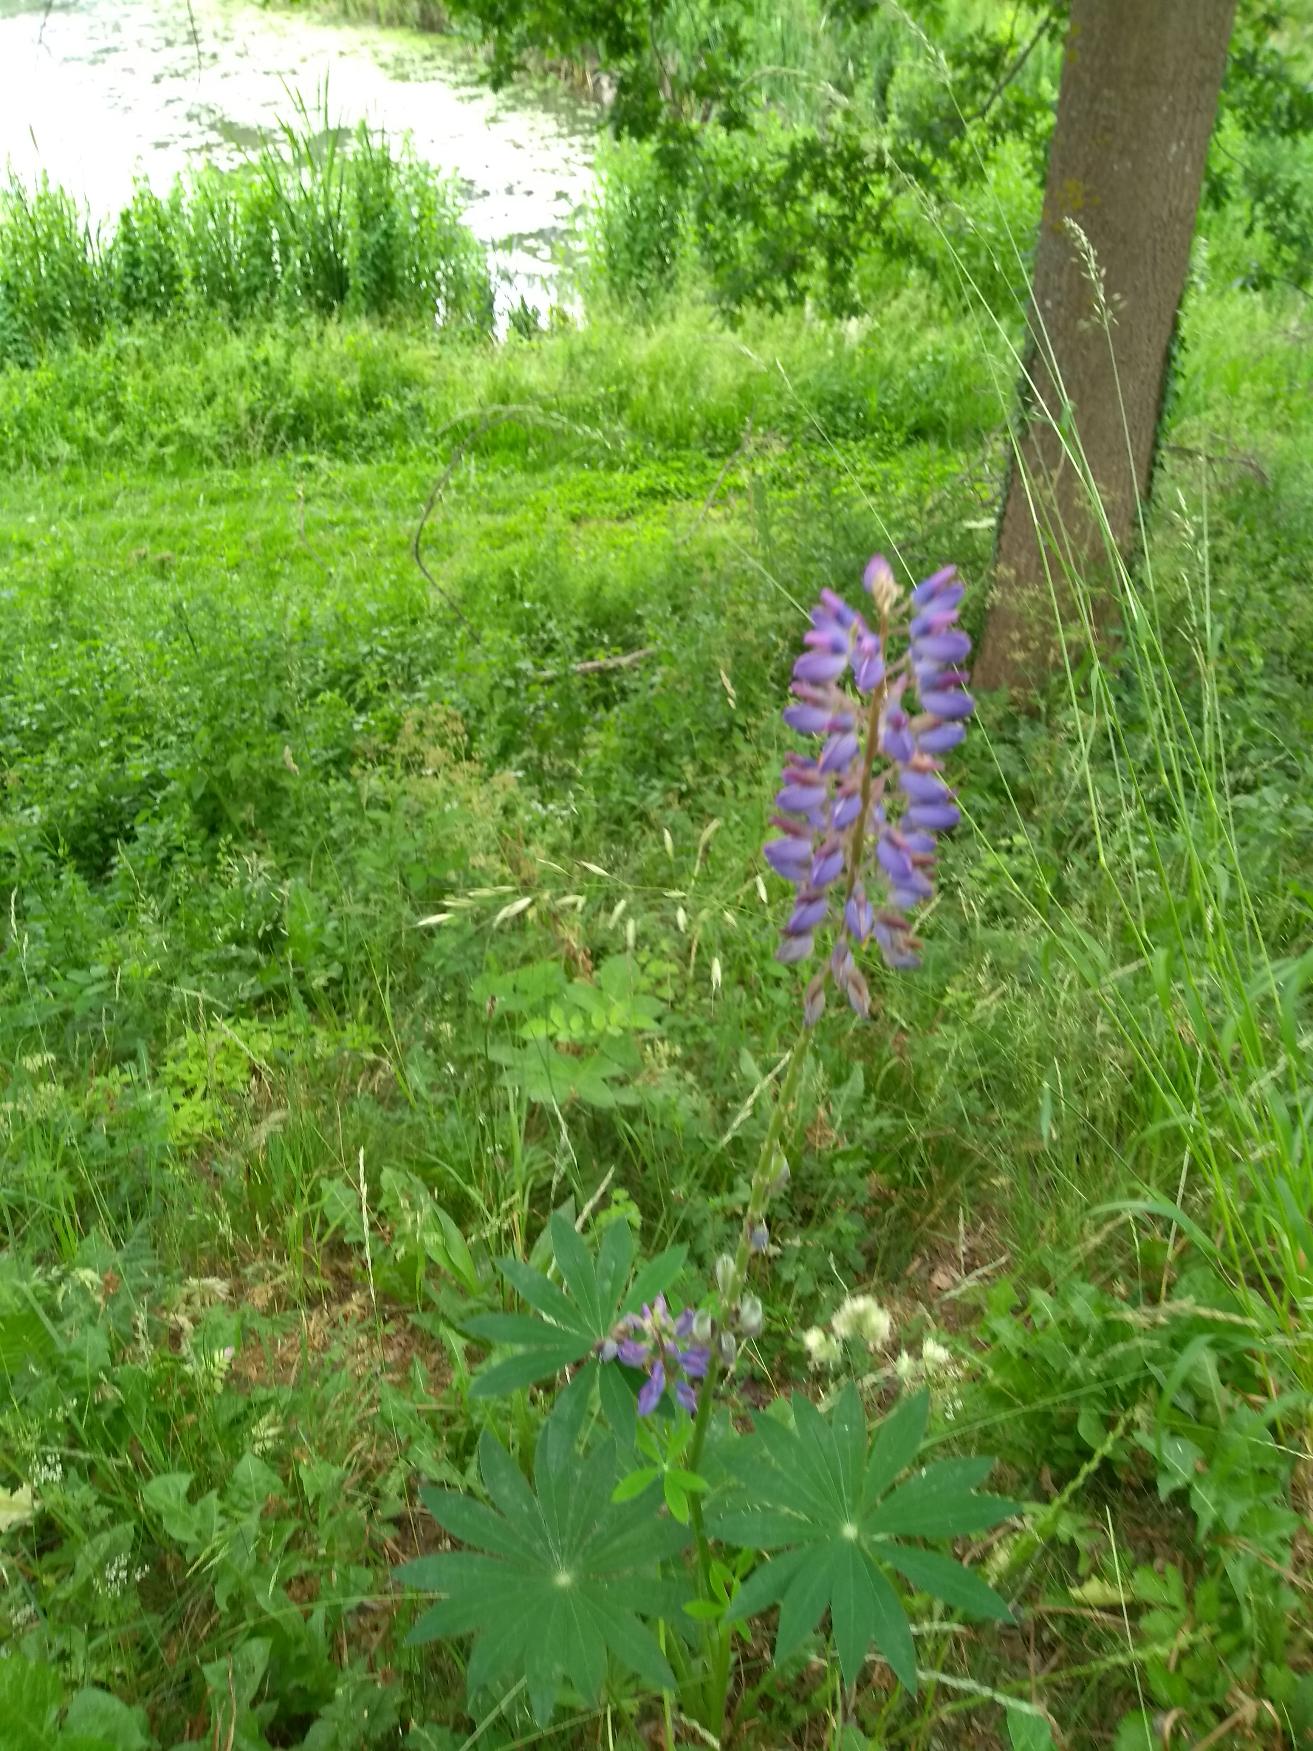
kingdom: Plantae
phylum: Tracheophyta
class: Magnoliopsida
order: Fabales
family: Fabaceae
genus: Lupinus
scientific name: Lupinus polyphyllus
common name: Mangebladet lupin
